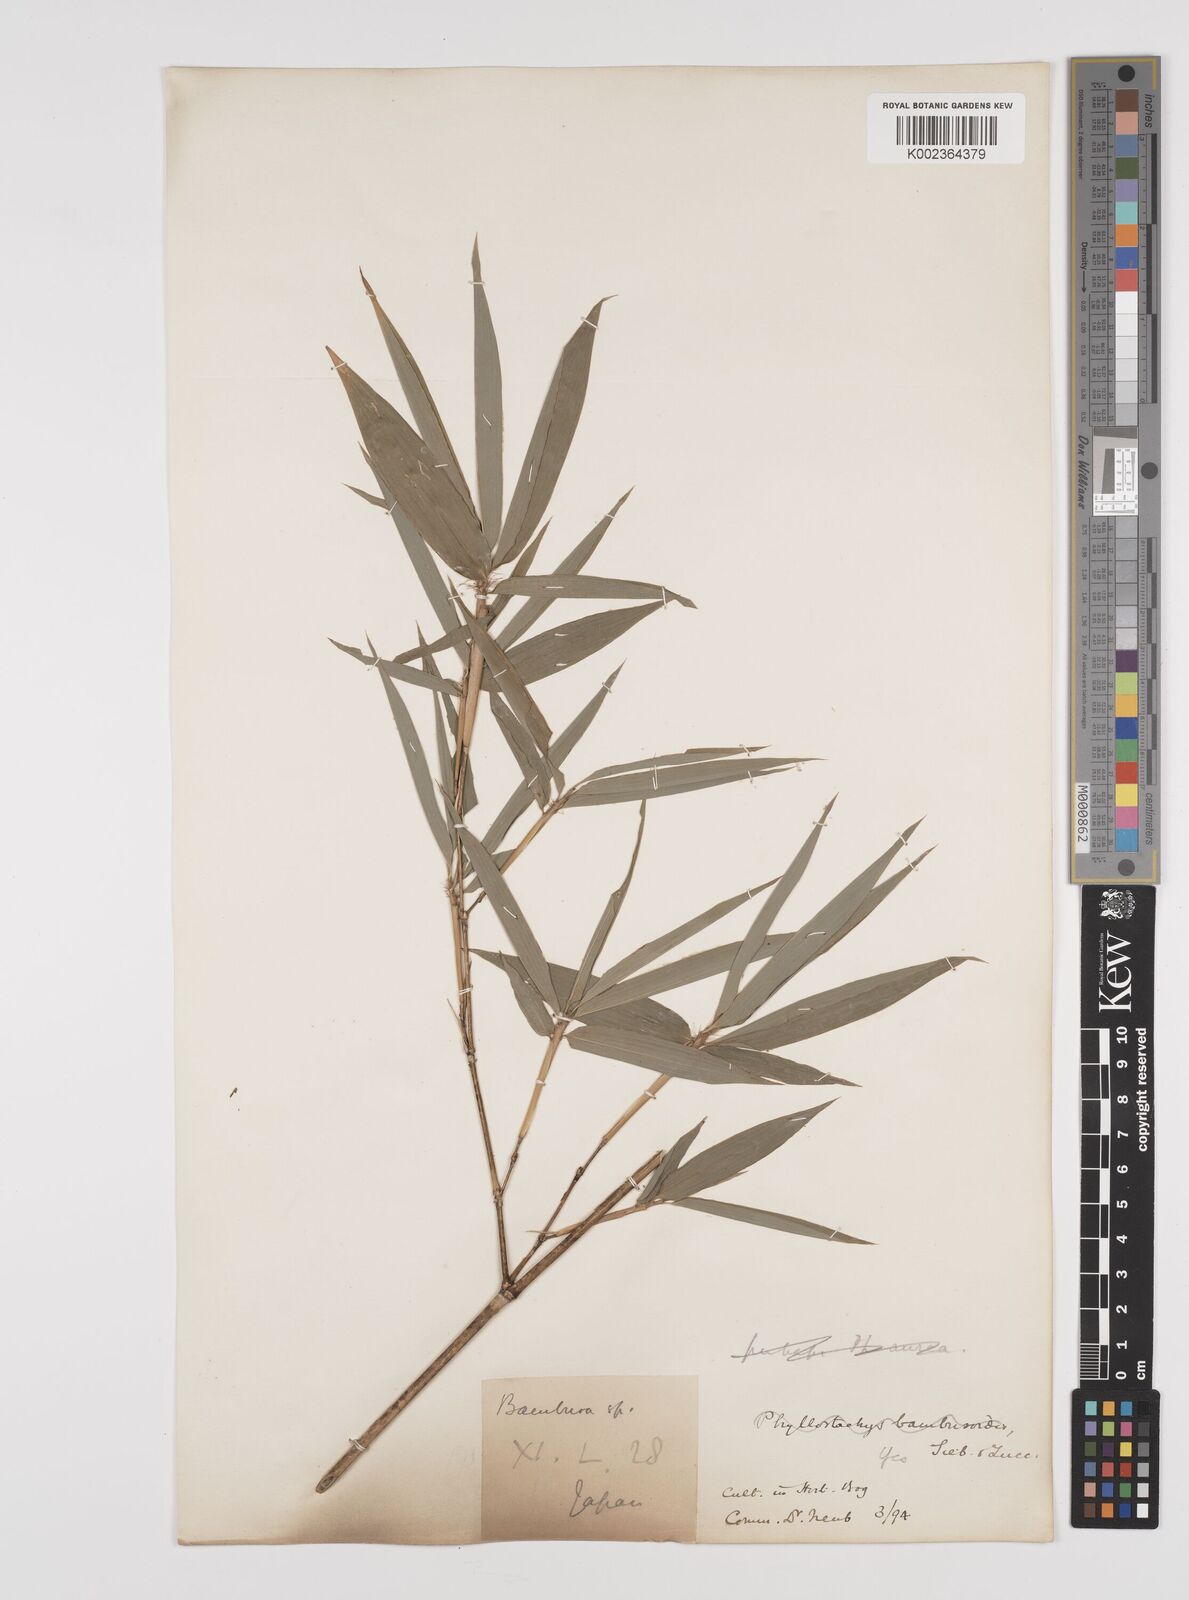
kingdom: Plantae
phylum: Tracheophyta
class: Liliopsida
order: Poales
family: Poaceae
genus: Phyllostachys
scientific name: Phyllostachys reticulata
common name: Bamboo
